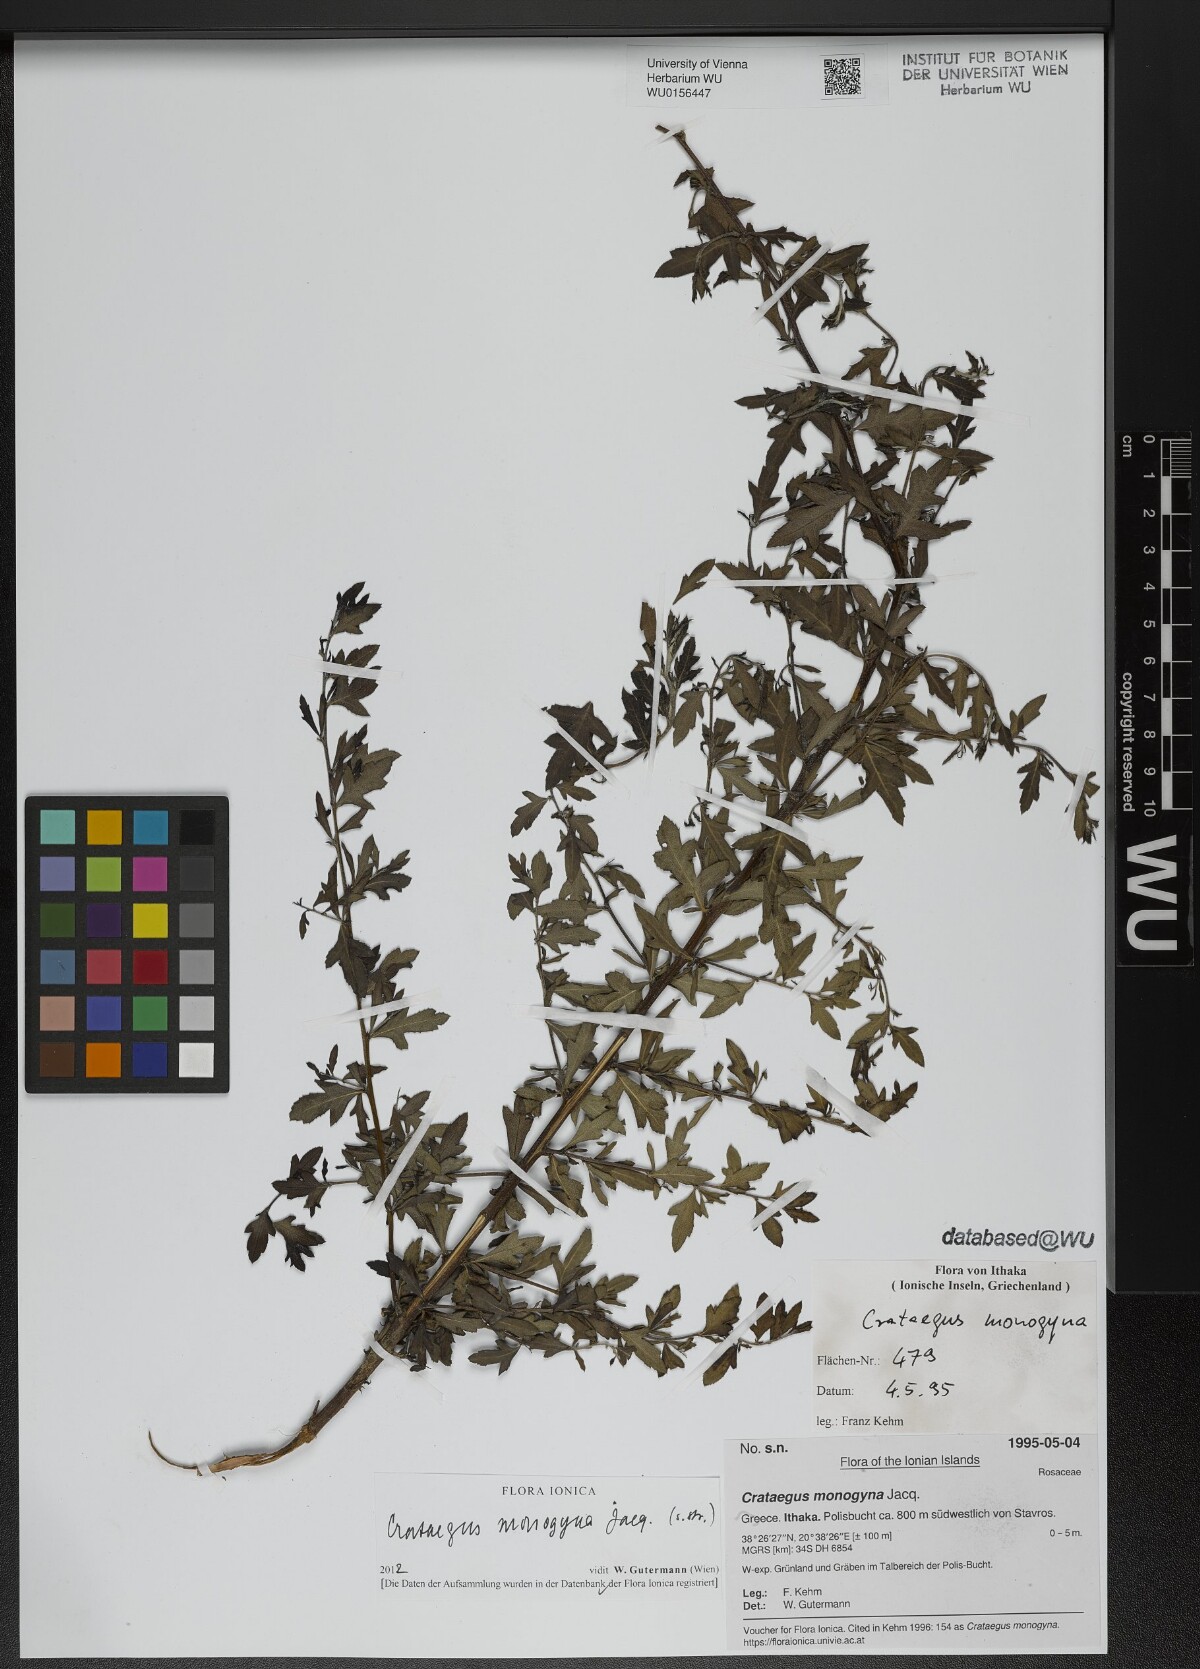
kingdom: Plantae
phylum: Tracheophyta
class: Magnoliopsida
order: Rosales
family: Rosaceae
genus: Crataegus
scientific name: Crataegus monogyna
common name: Hawthorn
